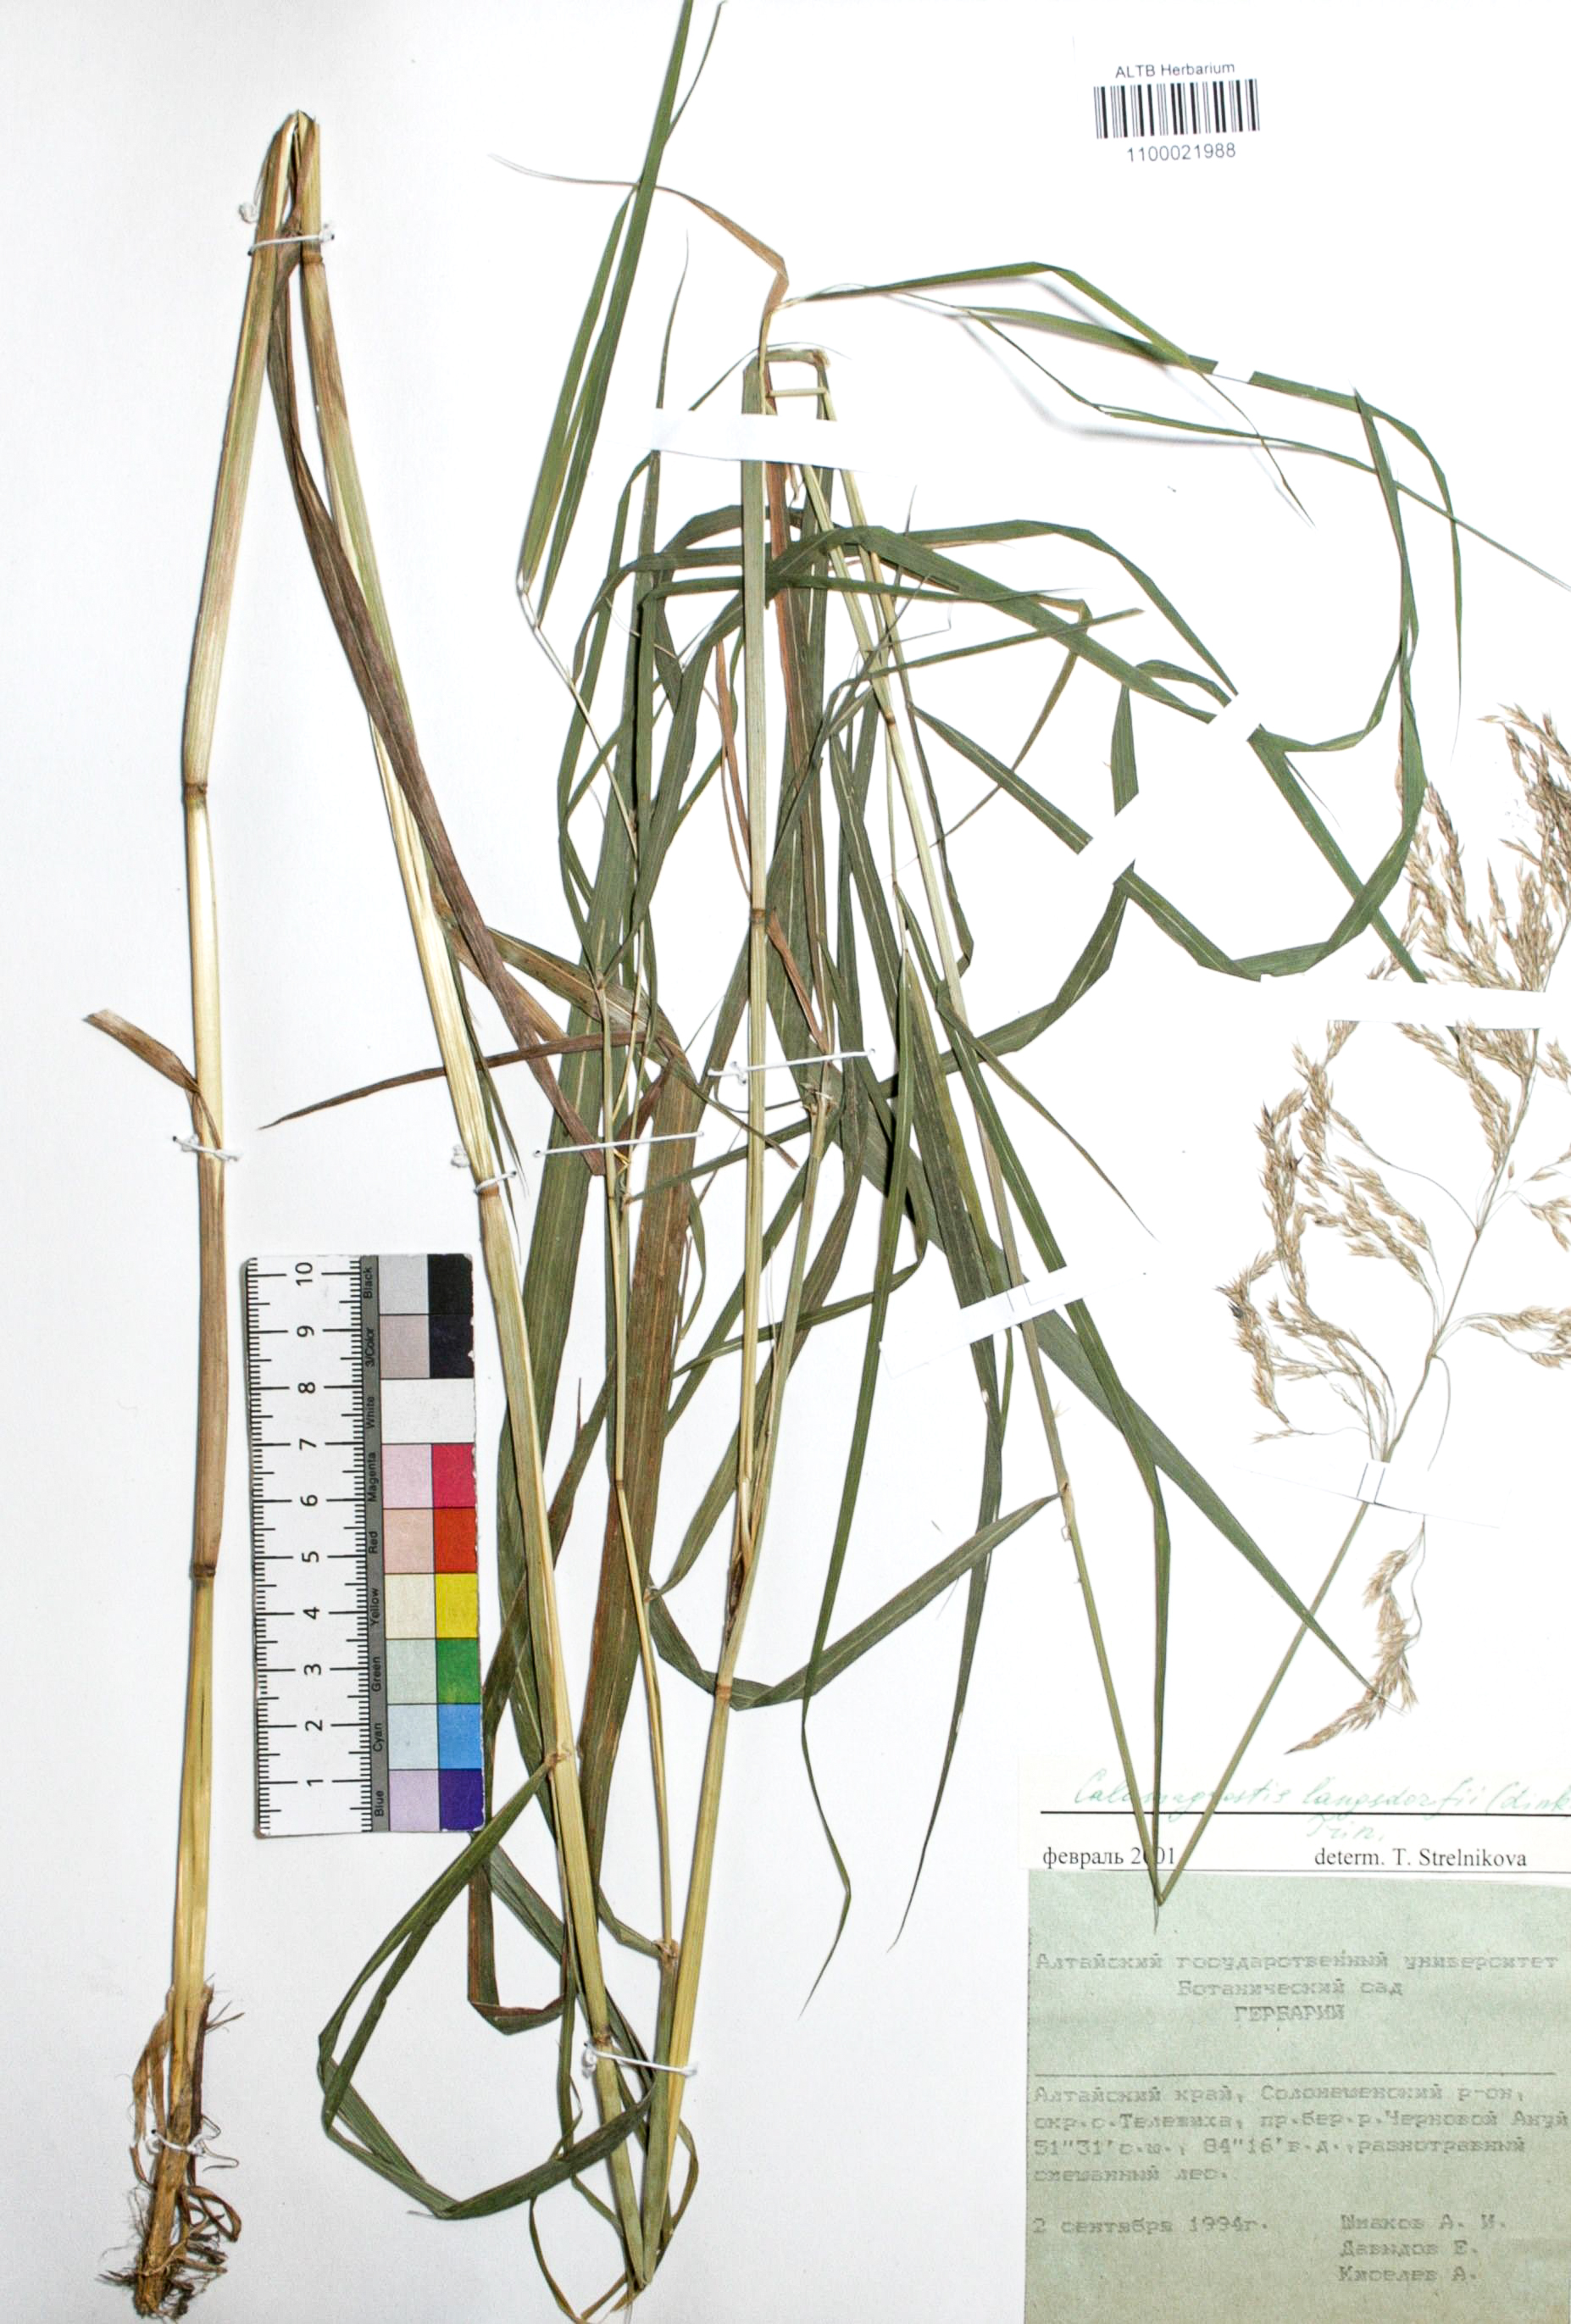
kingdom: Plantae
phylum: Tracheophyta
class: Liliopsida
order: Poales
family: Poaceae
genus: Calamagrostis
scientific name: Calamagrostis purpurea
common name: Scandinavian small-reed
